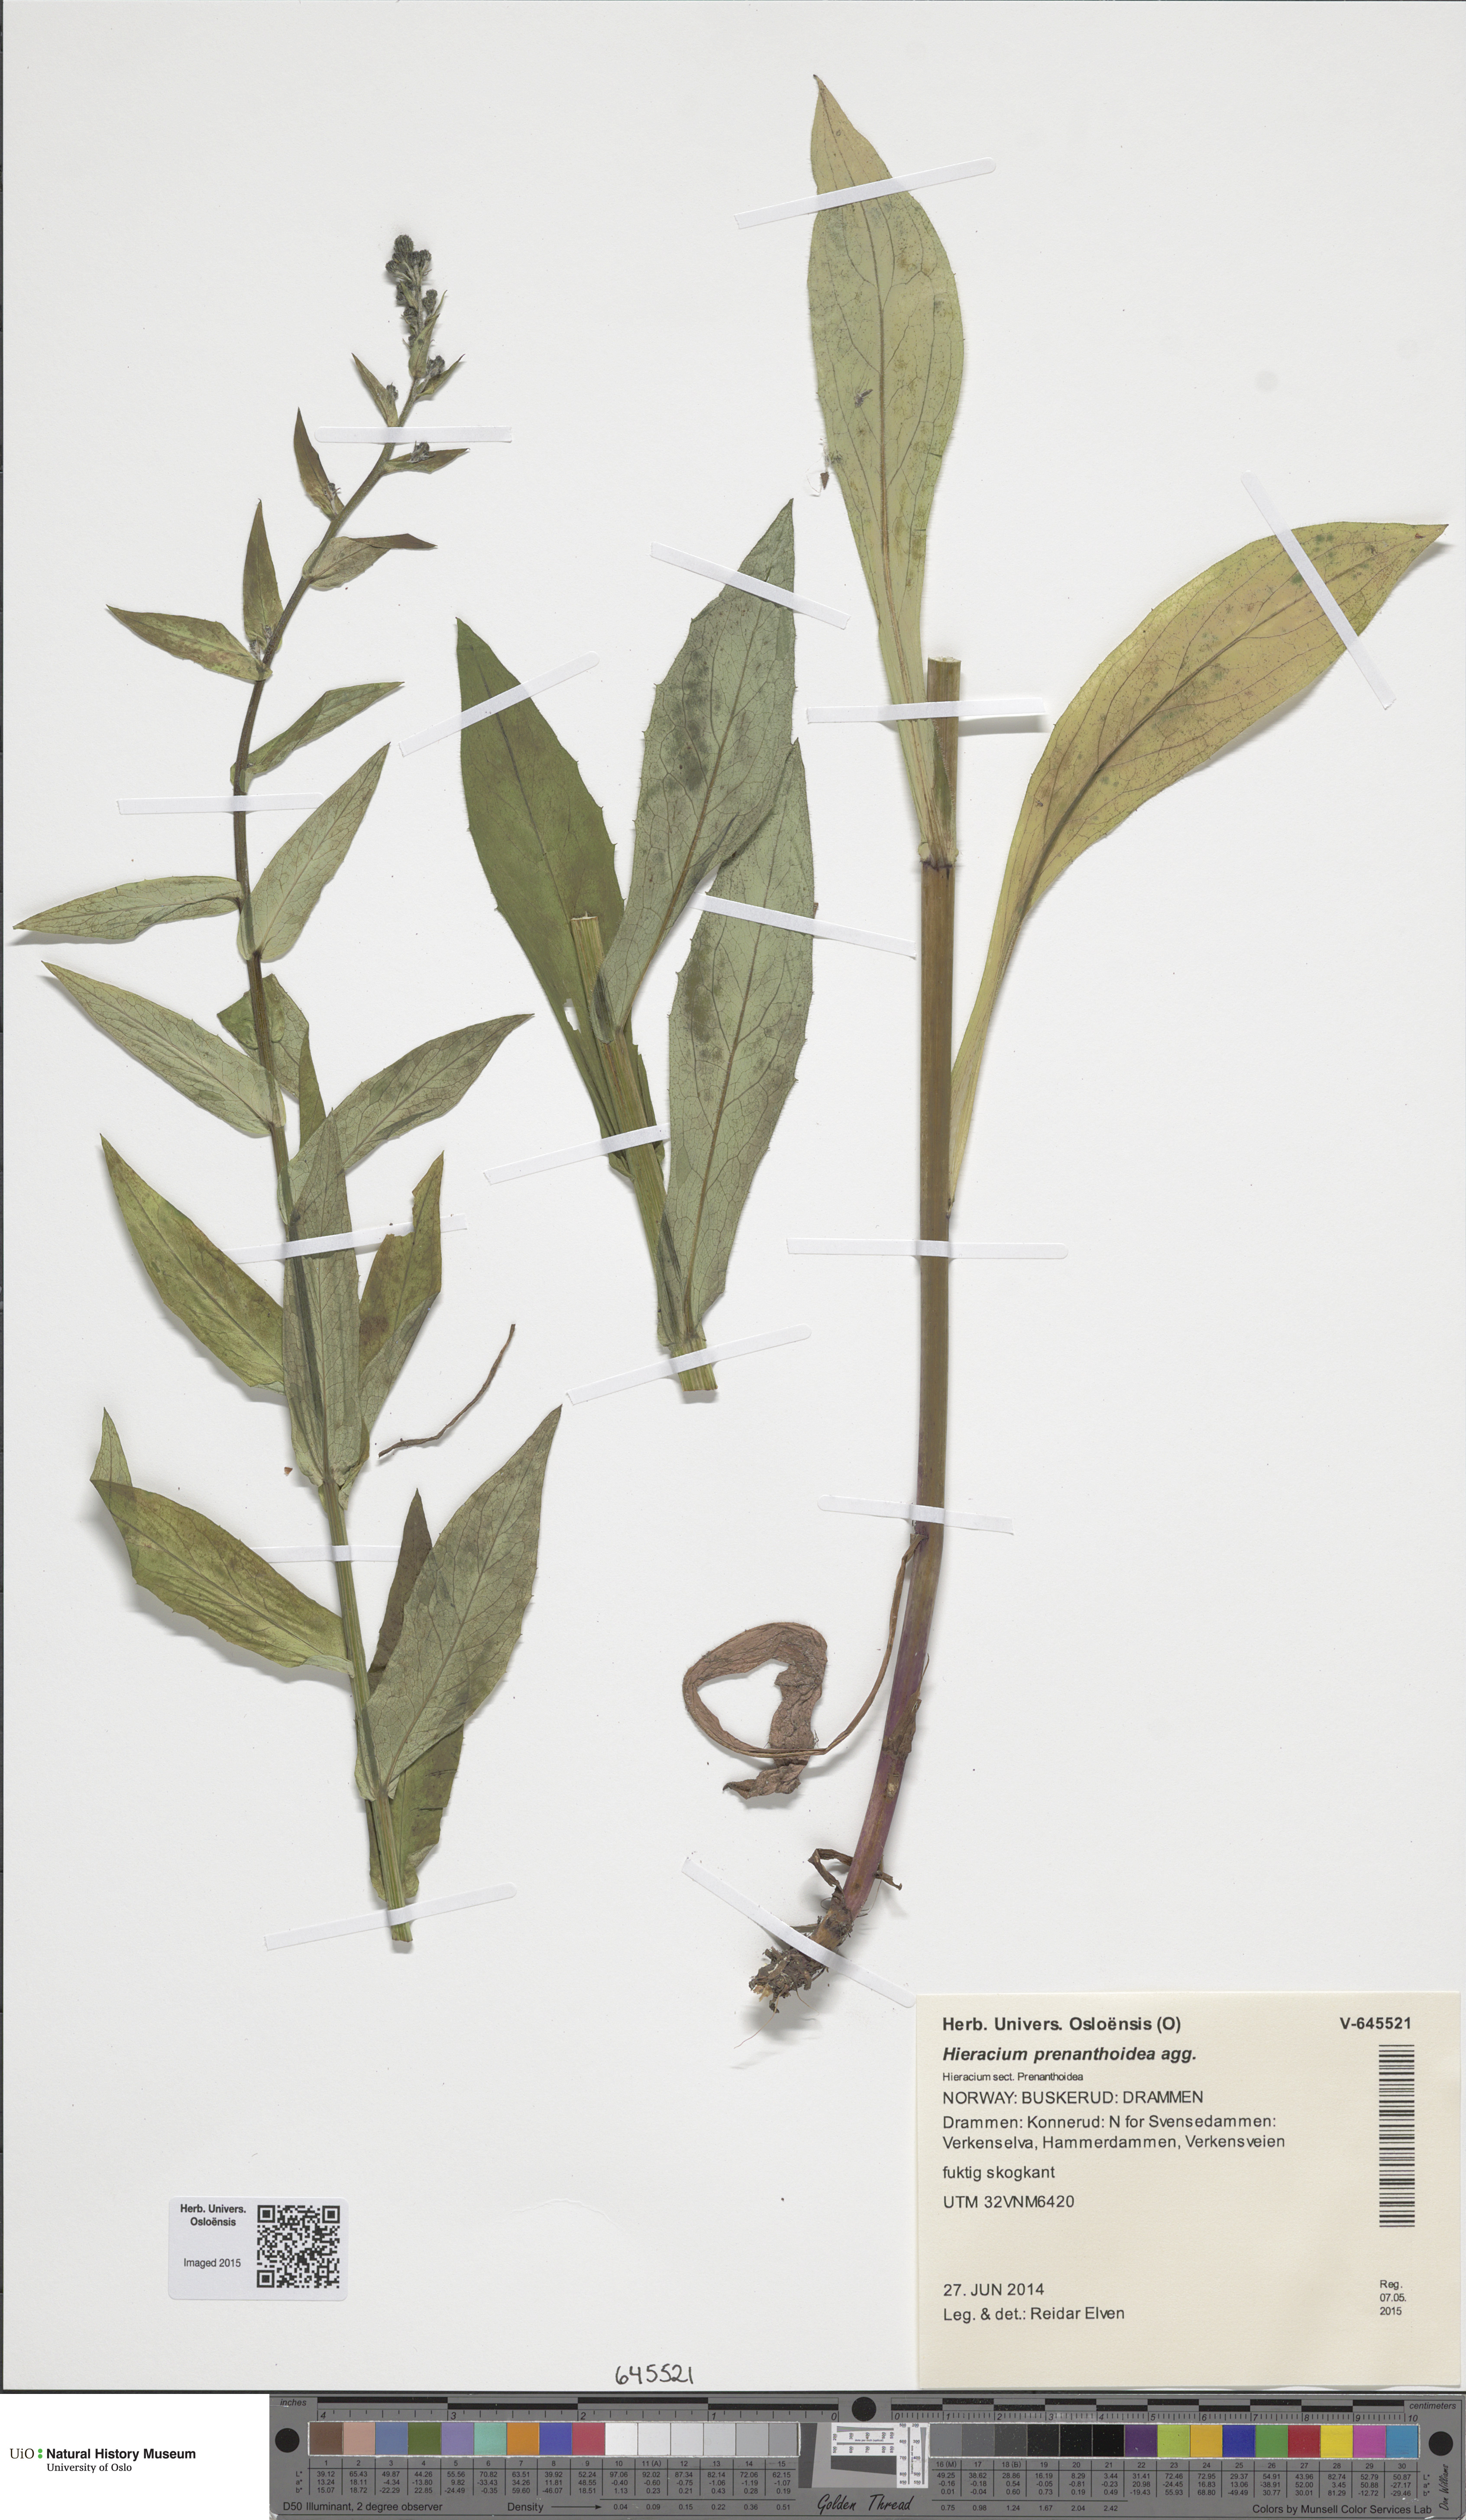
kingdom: Plantae
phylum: Tracheophyta
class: Magnoliopsida
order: Asterales
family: Asteraceae
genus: Hieracium
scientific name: Hieracium prenanthoides
